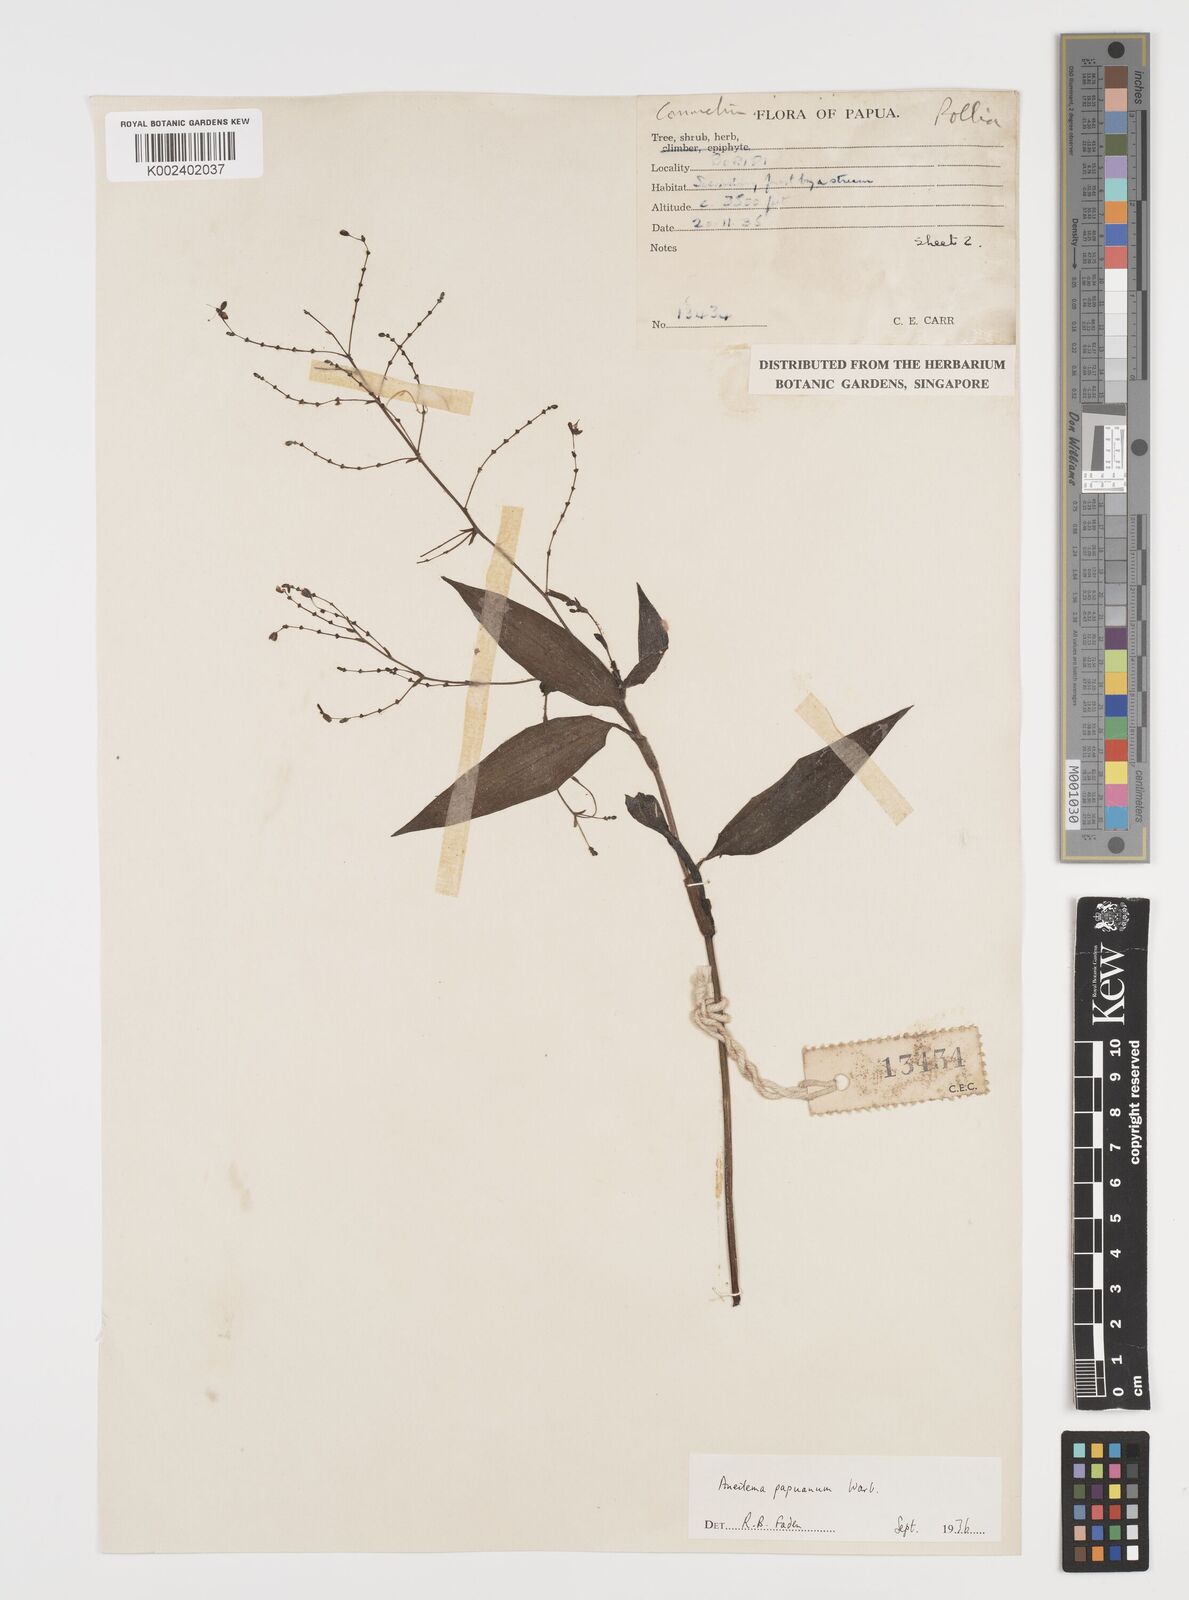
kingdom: Plantae
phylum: Tracheophyta
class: Liliopsida
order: Commelinales
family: Commelinaceae
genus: Aneilema
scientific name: Aneilema acuminatum
